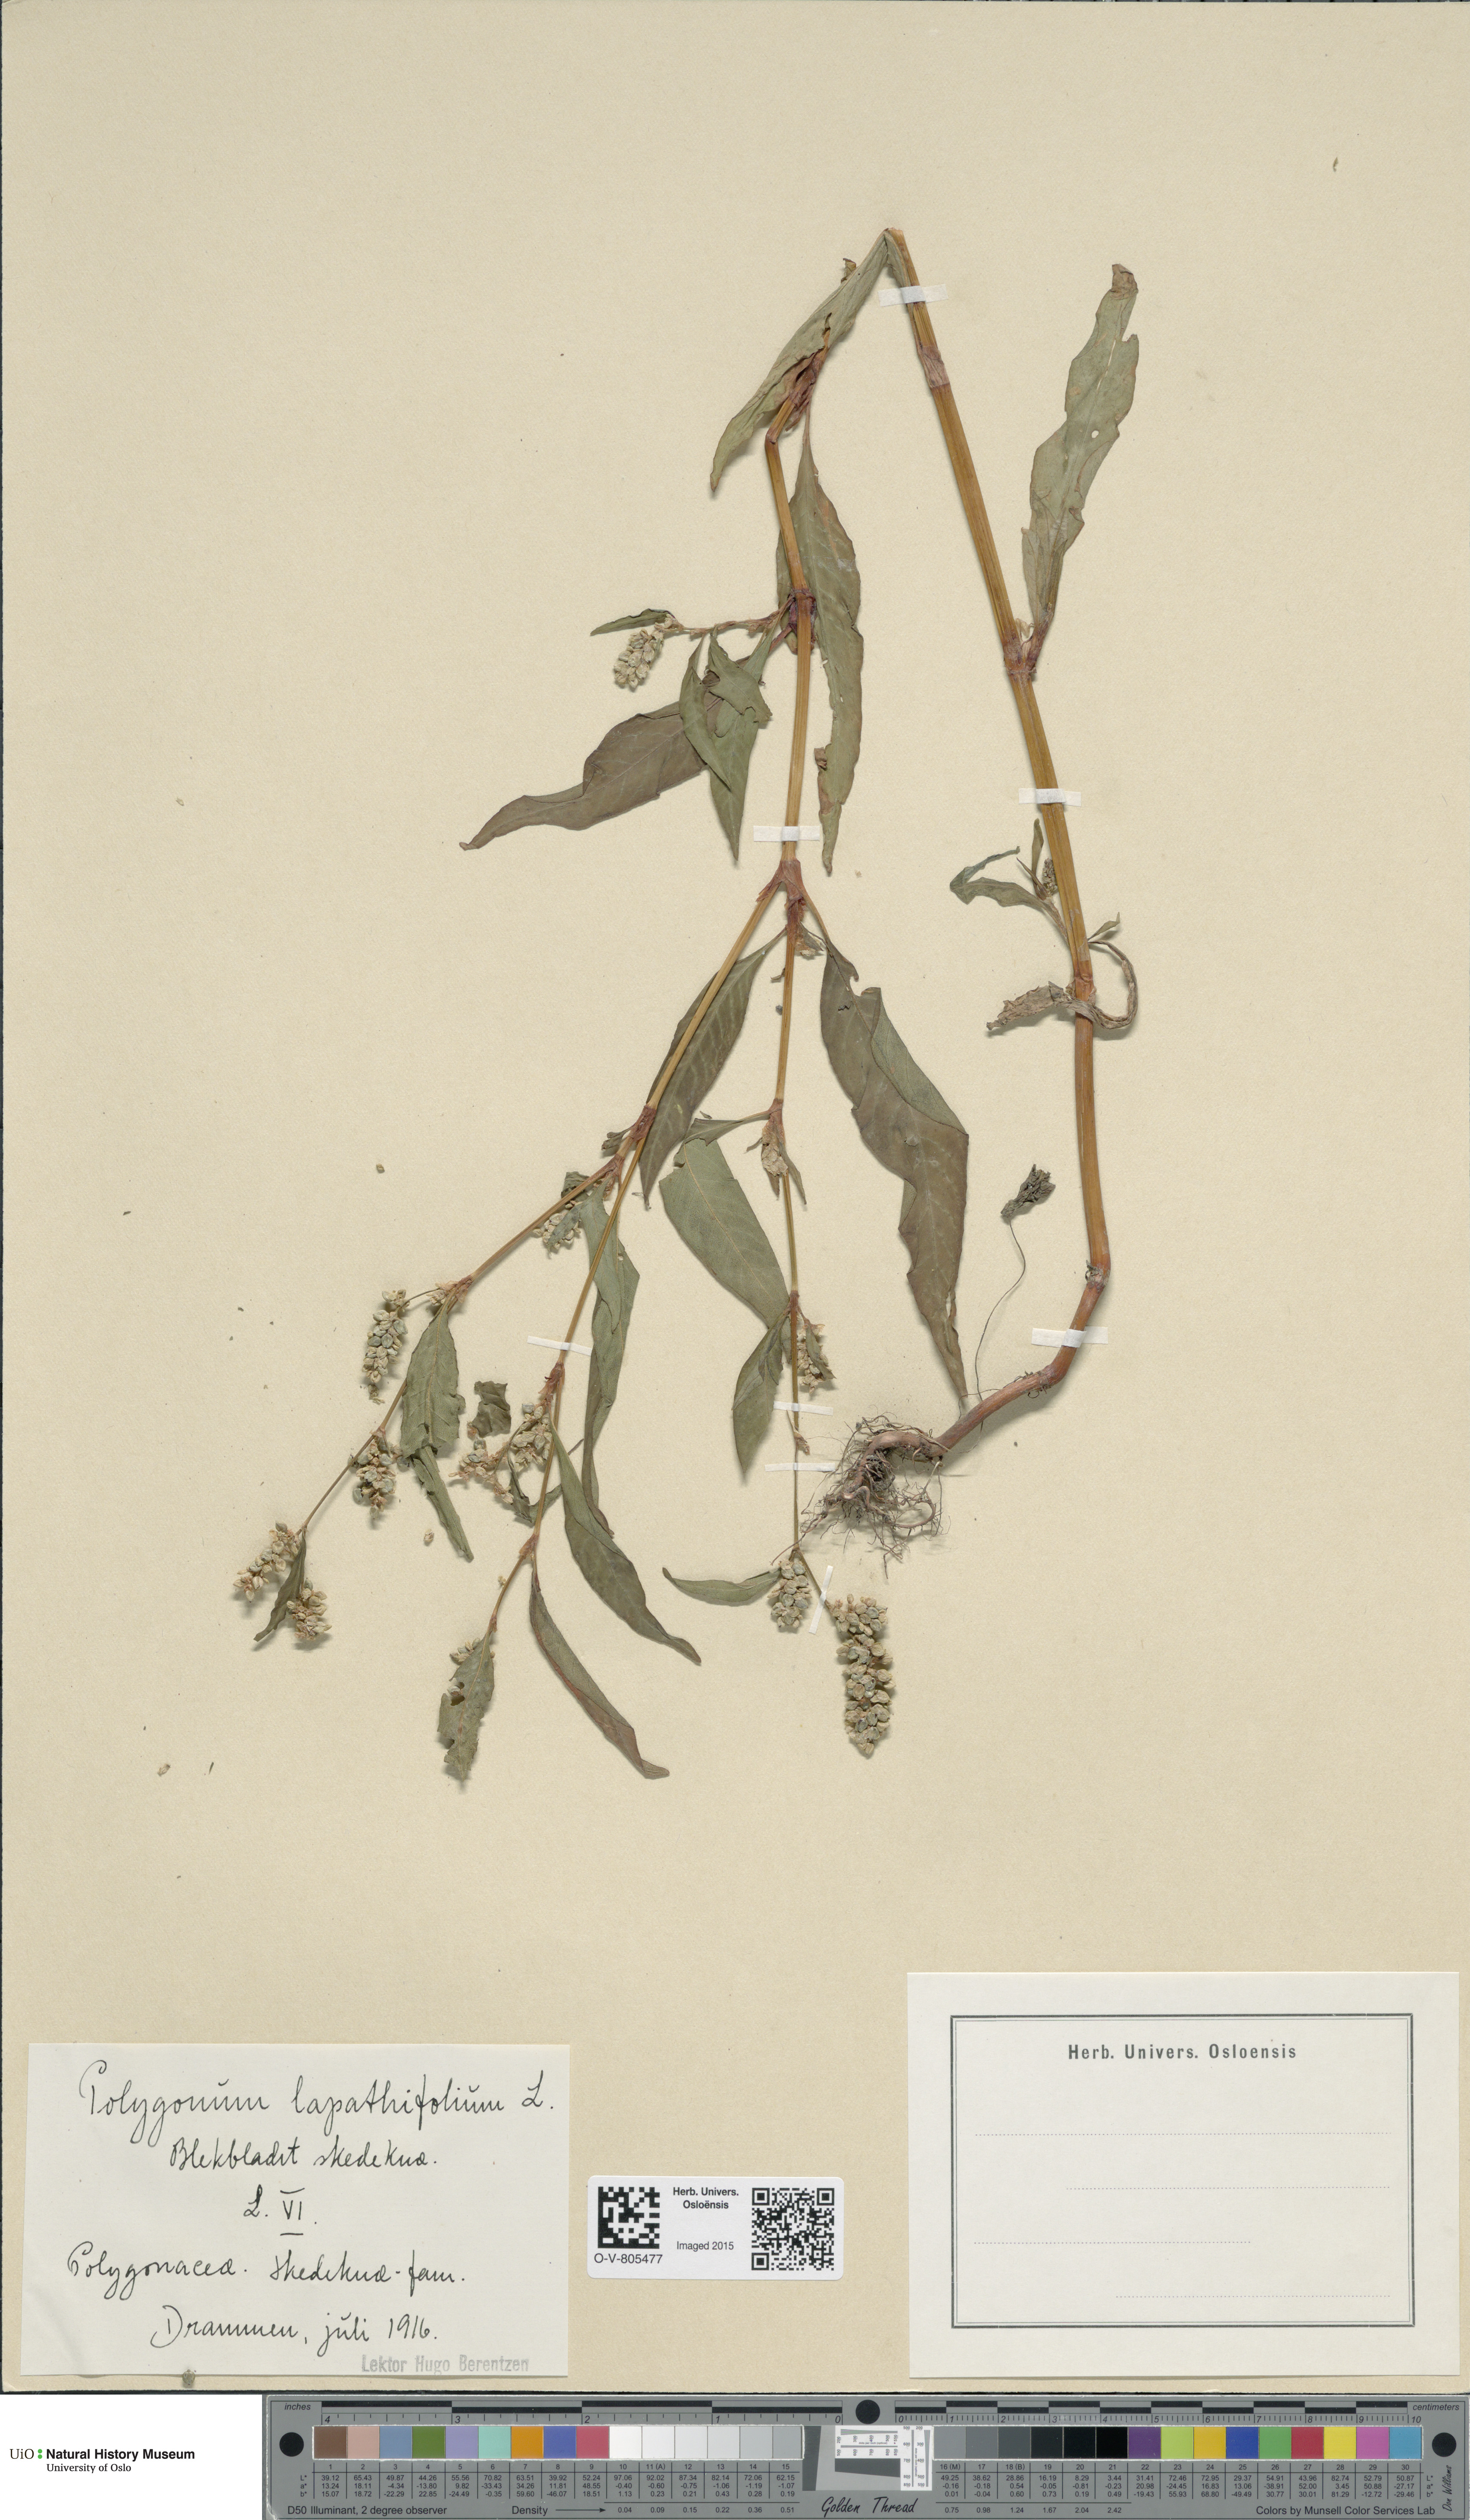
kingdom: Plantae
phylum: Tracheophyta
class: Magnoliopsida
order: Caryophyllales
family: Polygonaceae
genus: Persicaria
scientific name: Persicaria lapathifolia
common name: Curlytop knotweed
